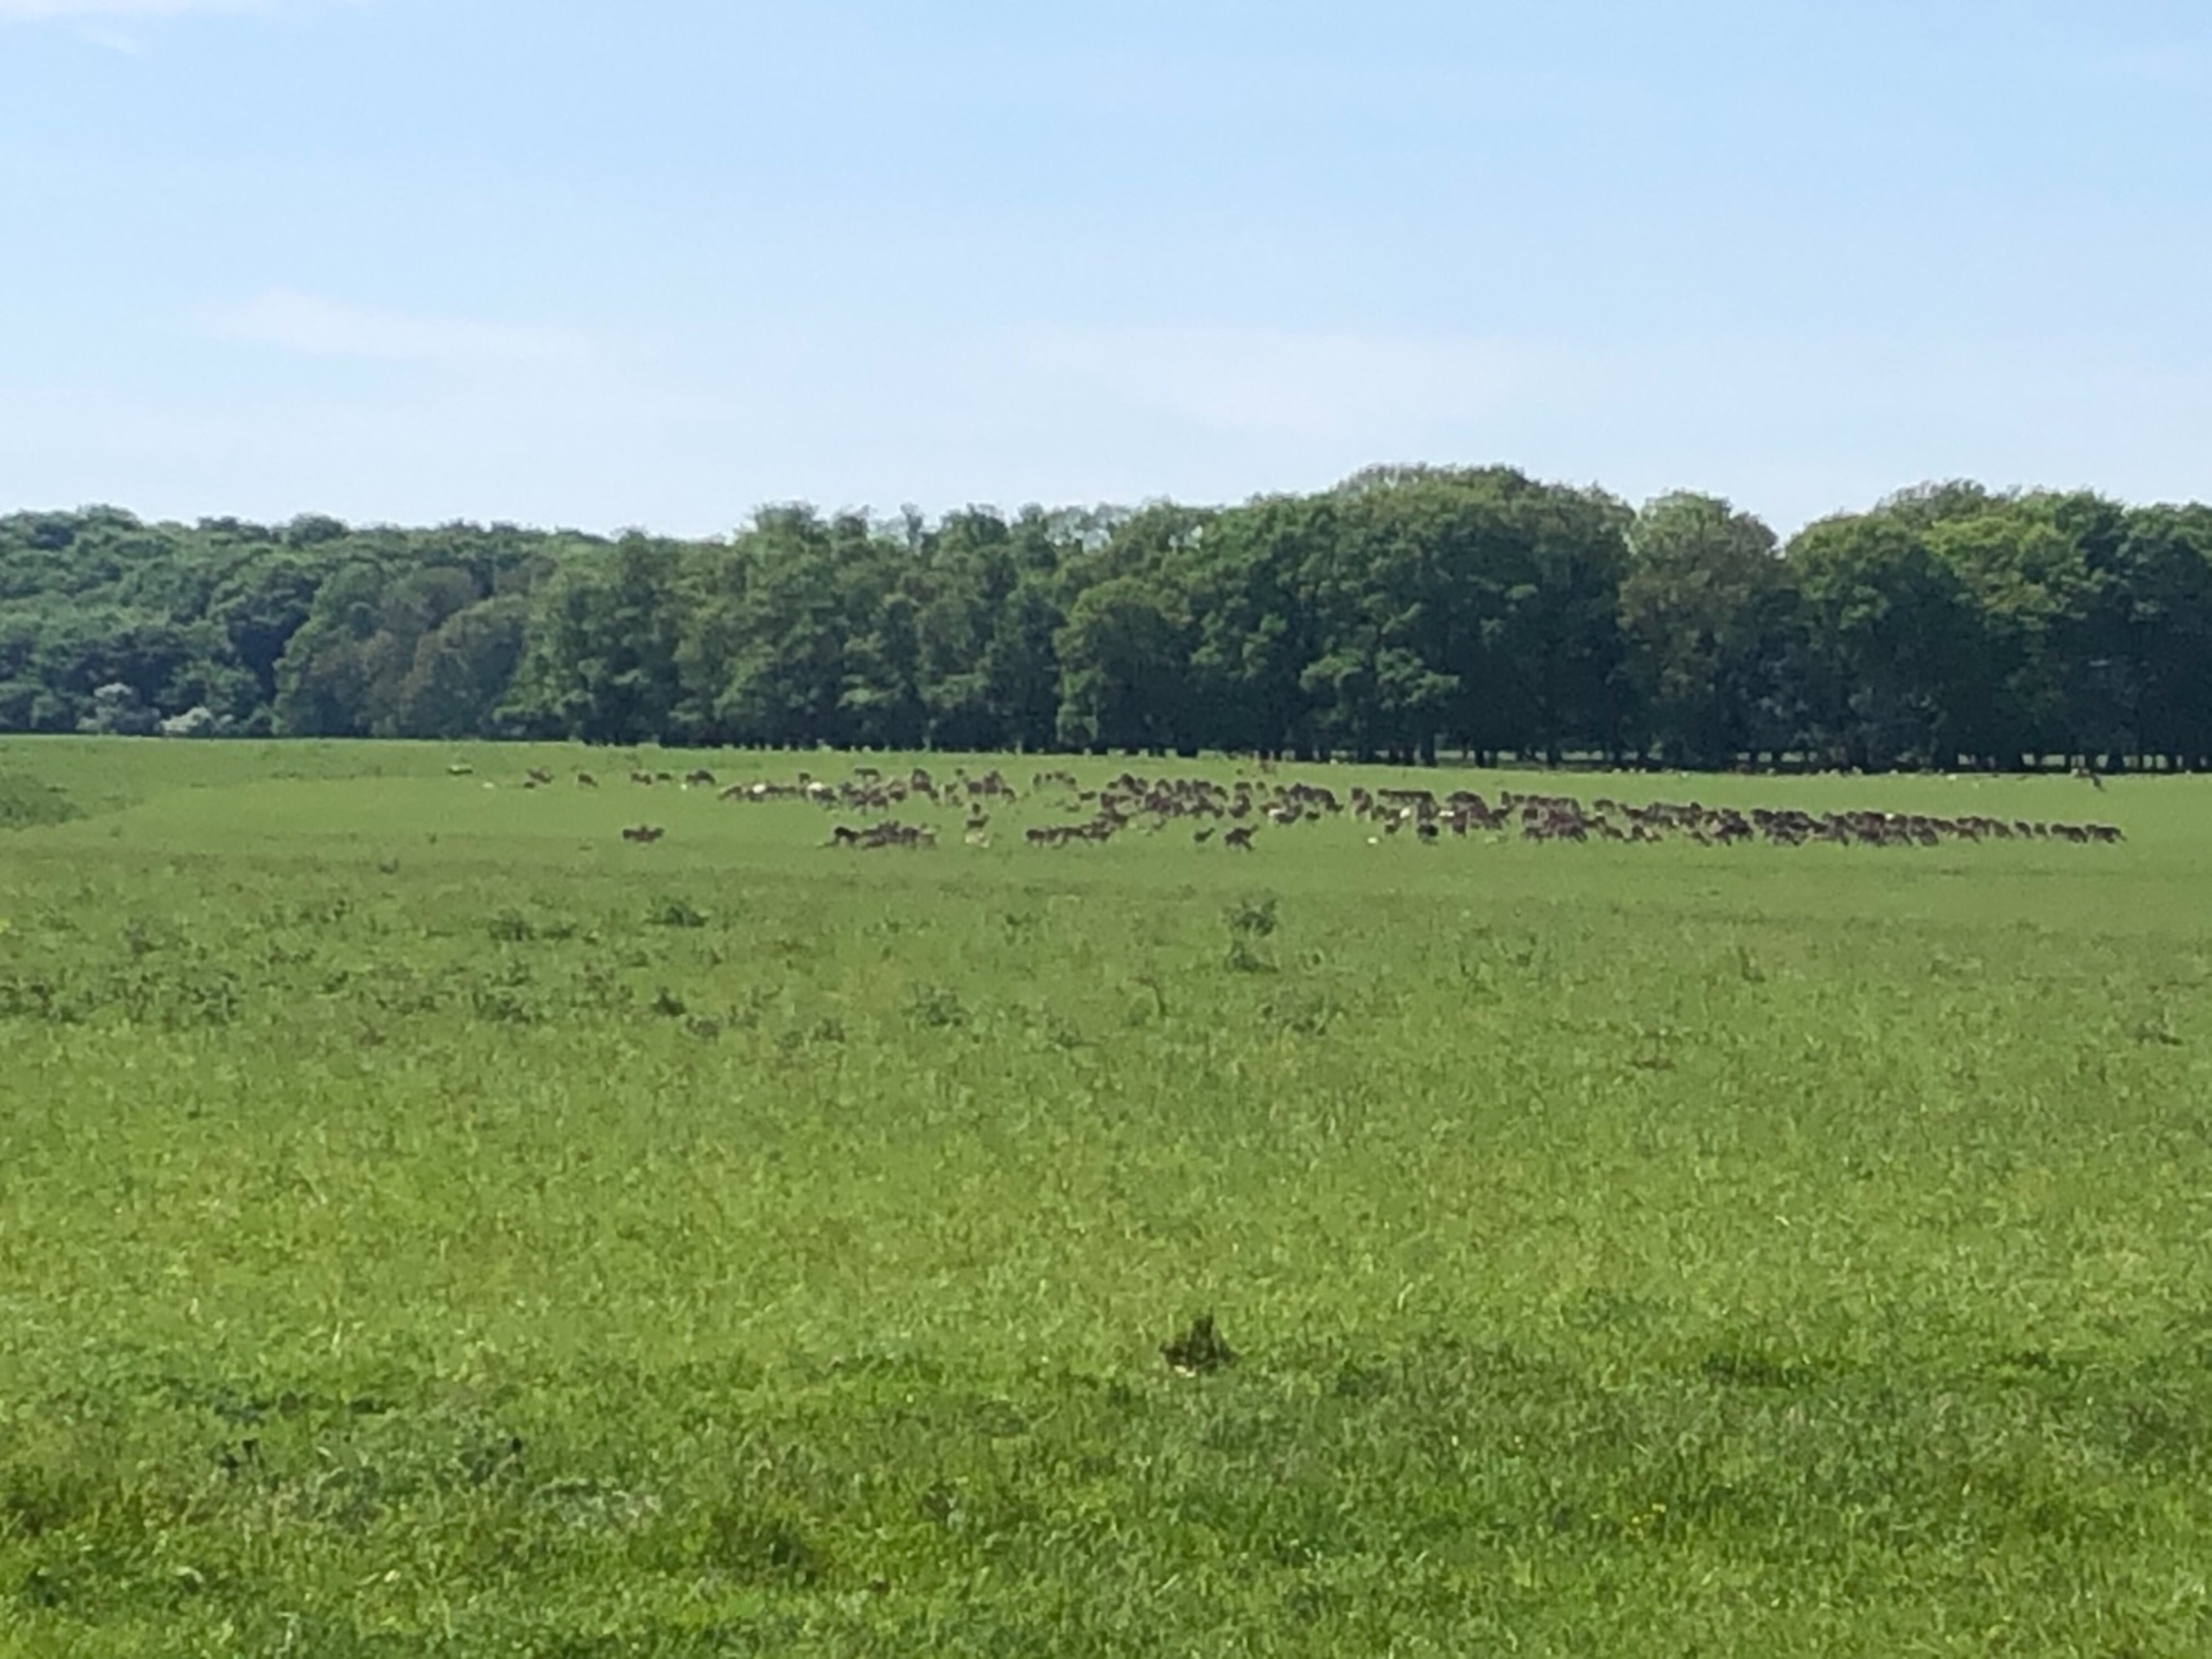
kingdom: Animalia
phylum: Chordata
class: Mammalia
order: Artiodactyla
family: Cervidae
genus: Dama
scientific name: Dama dama
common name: Dådyr
